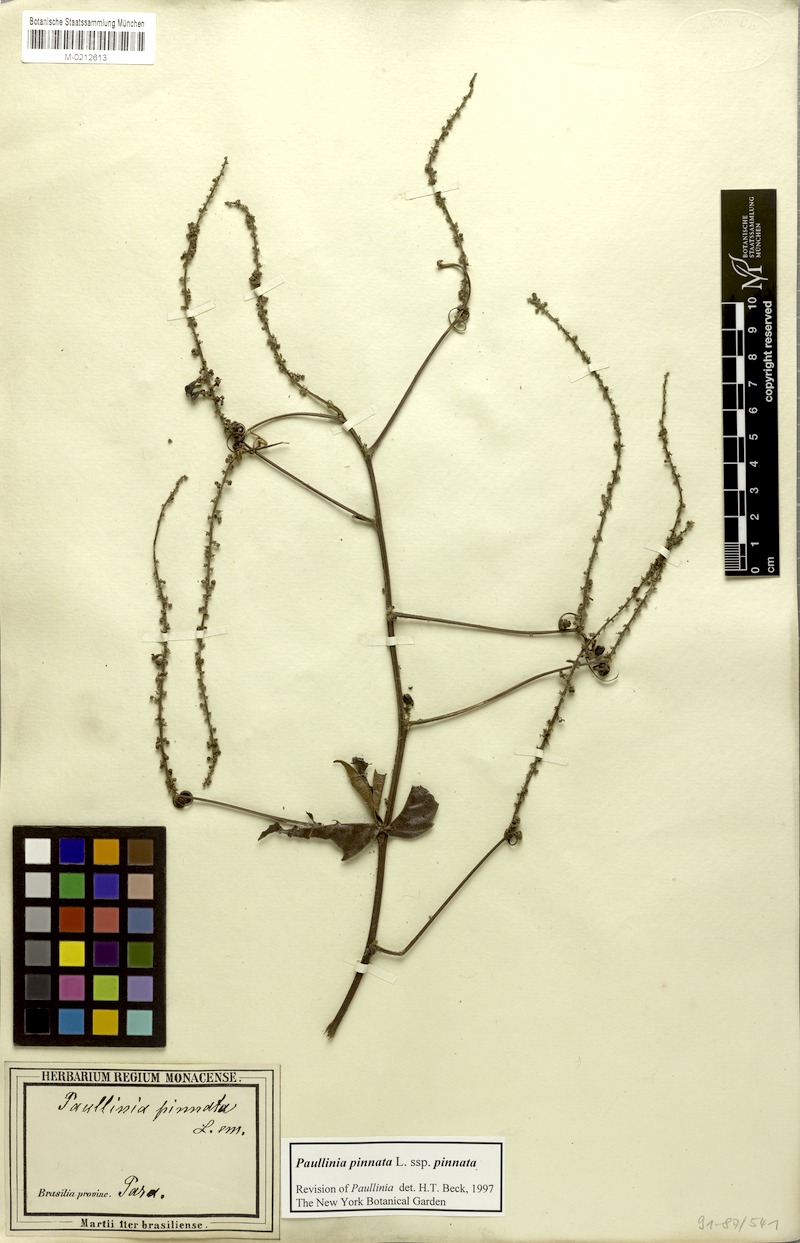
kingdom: Plantae
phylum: Tracheophyta
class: Magnoliopsida
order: Sapindales
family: Sapindaceae
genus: Paullinia
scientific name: Paullinia pinnata
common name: Barbasco
